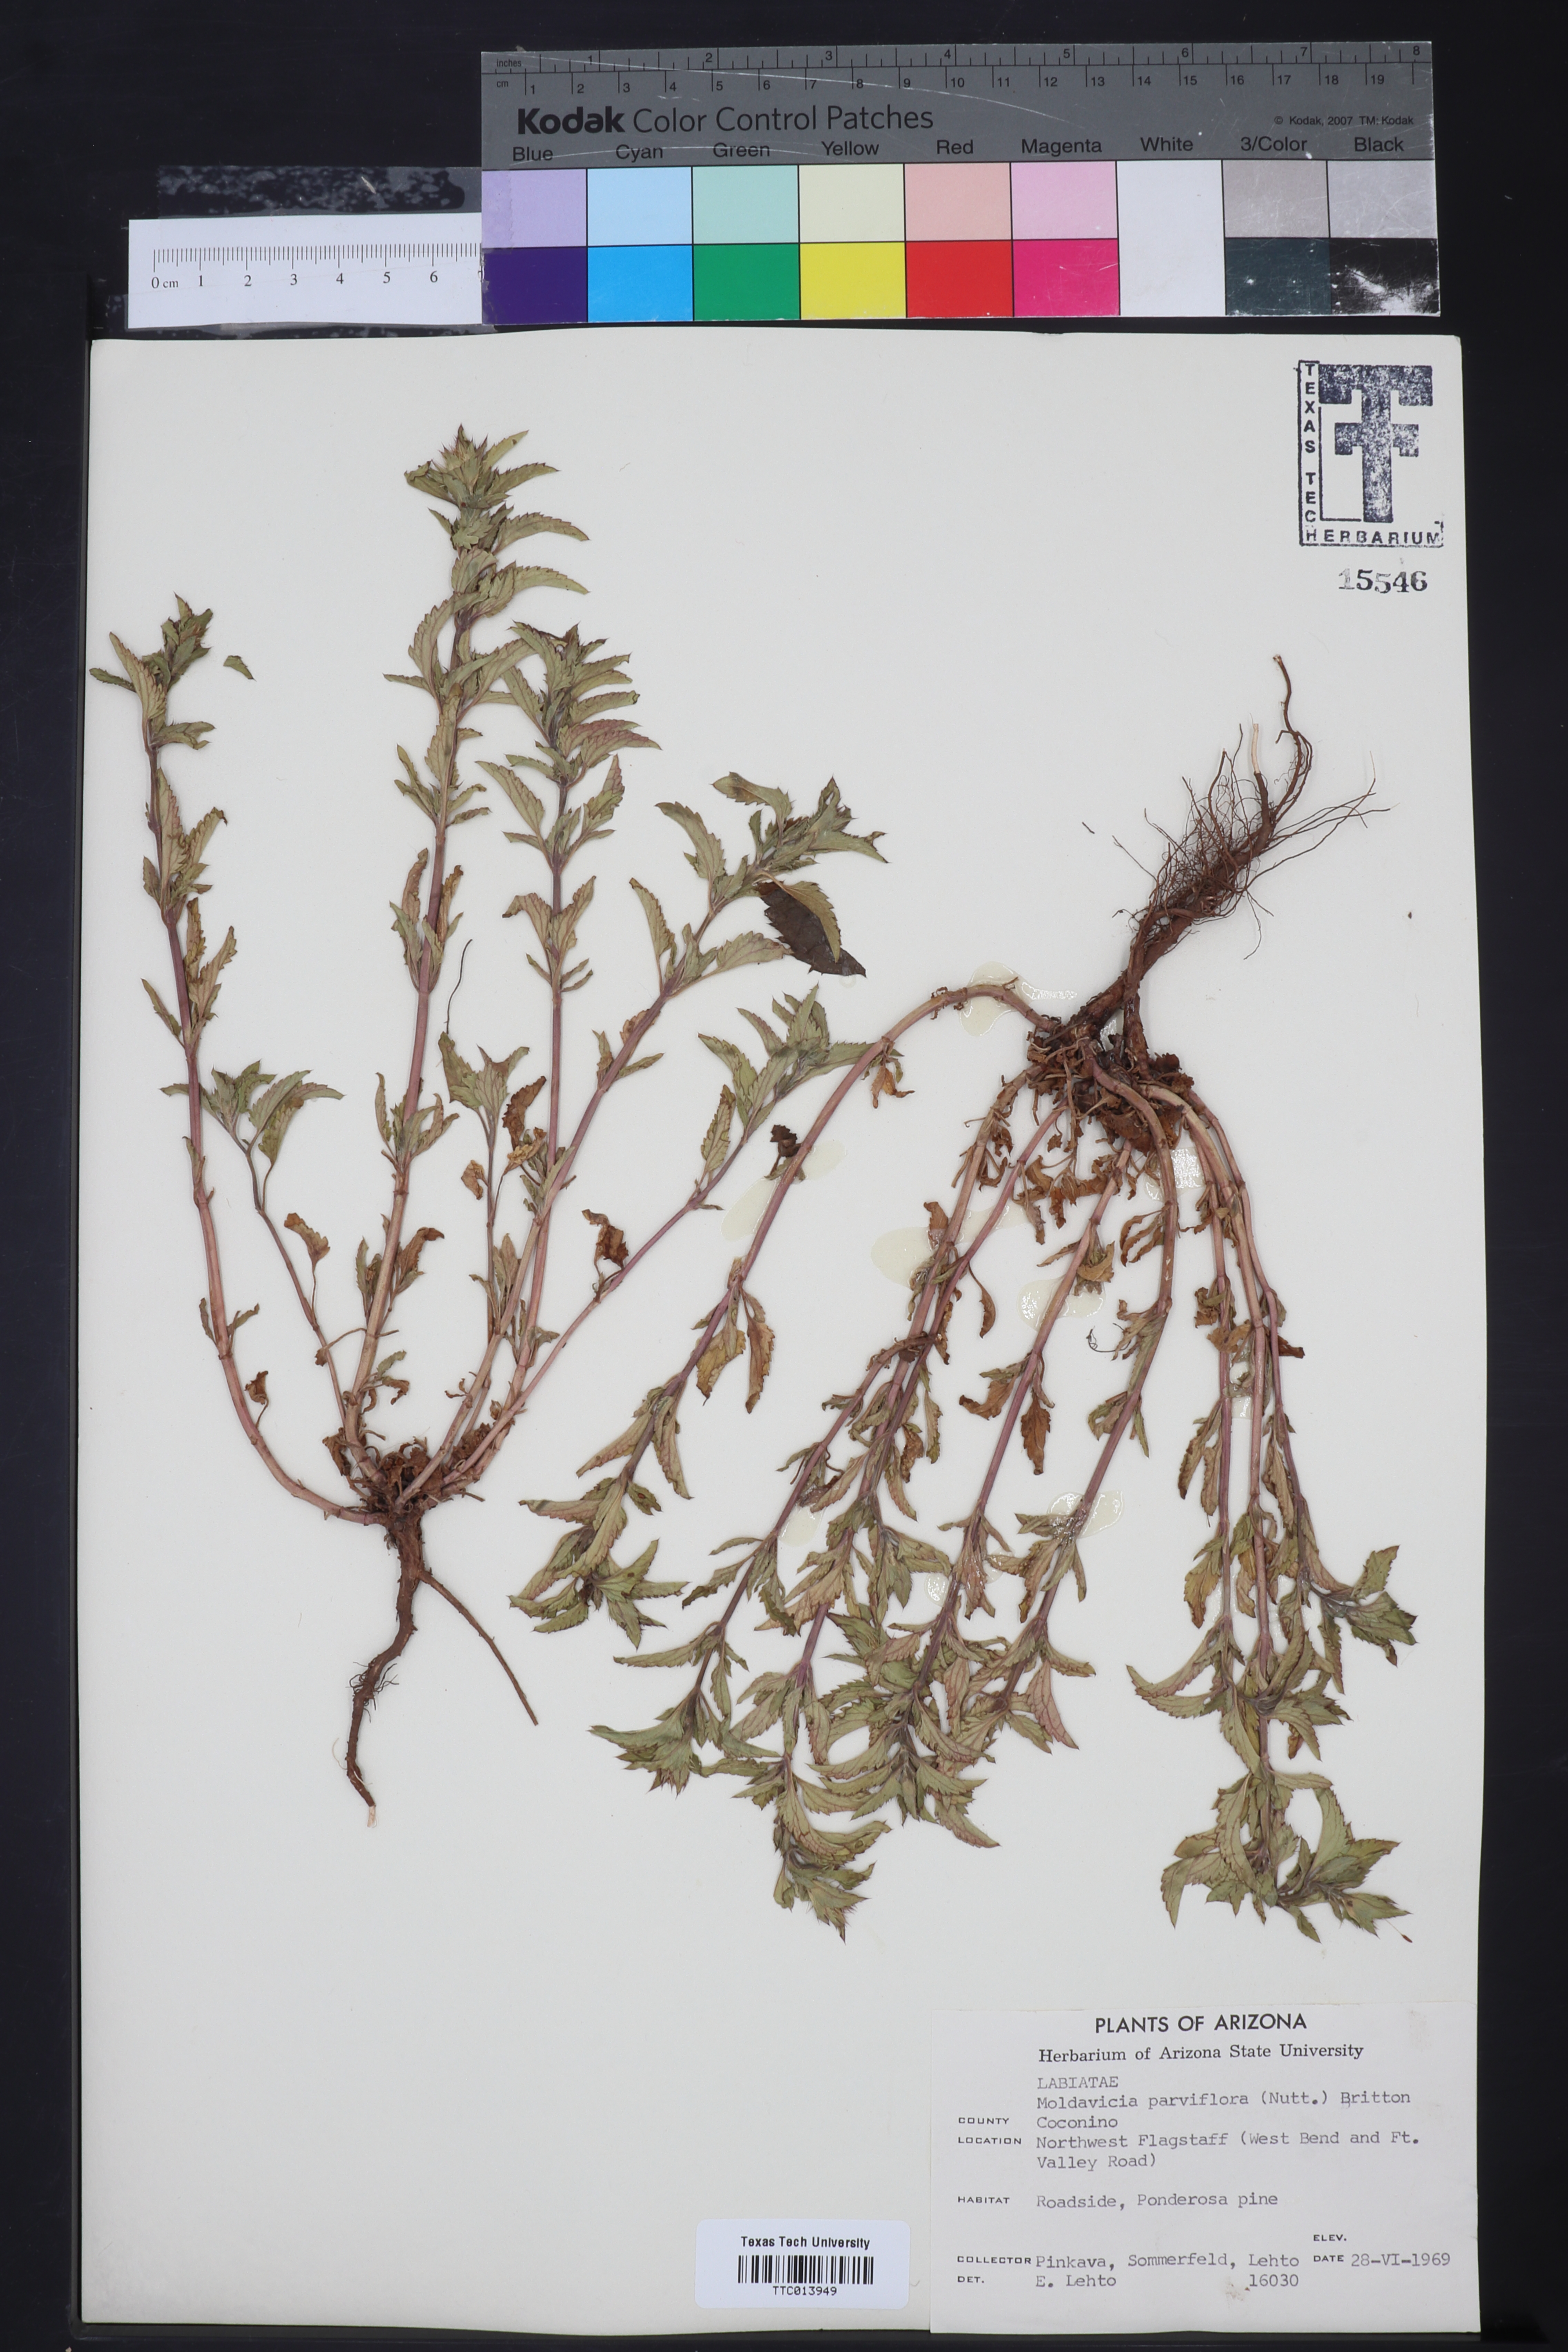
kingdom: Plantae
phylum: Tracheophyta
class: Magnoliopsida
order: Lamiales
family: Lamiaceae
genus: Physostegia
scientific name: Physostegia parviflora
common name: American dragonhead
